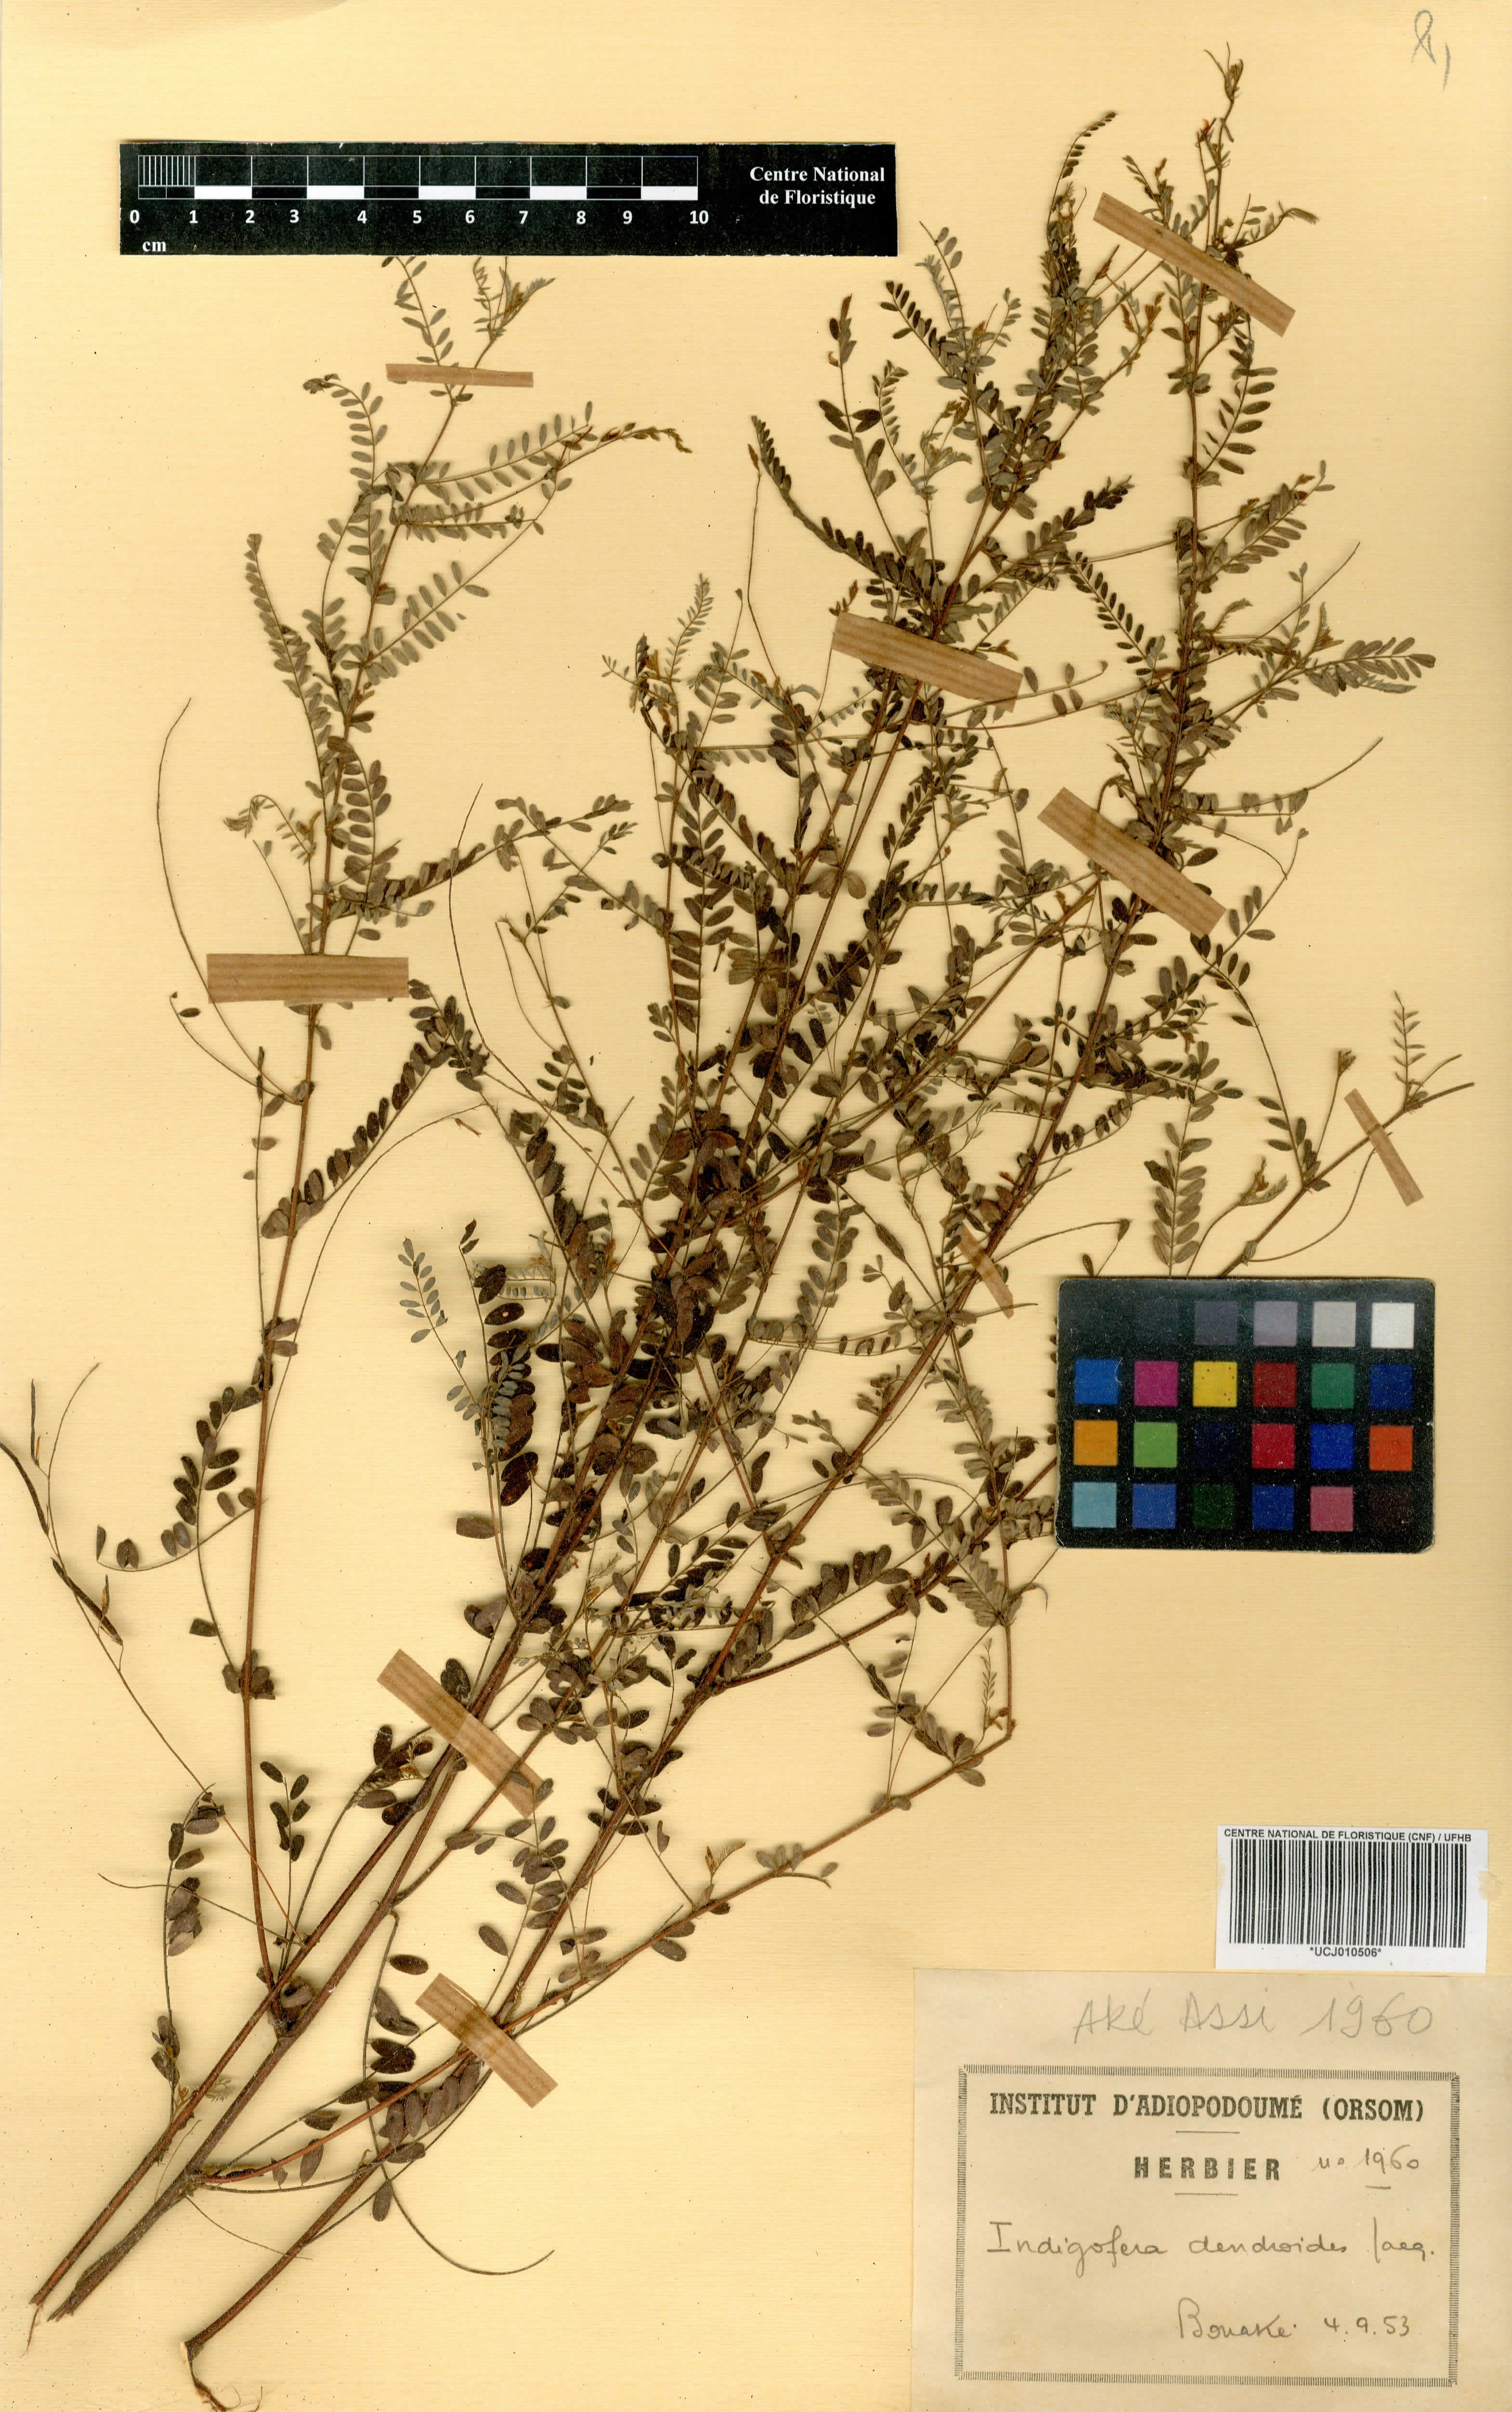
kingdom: Plantae
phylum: Tracheophyta
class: Magnoliopsida
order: Fabales
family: Fabaceae
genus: Indigofera
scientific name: Indigofera dendroides
